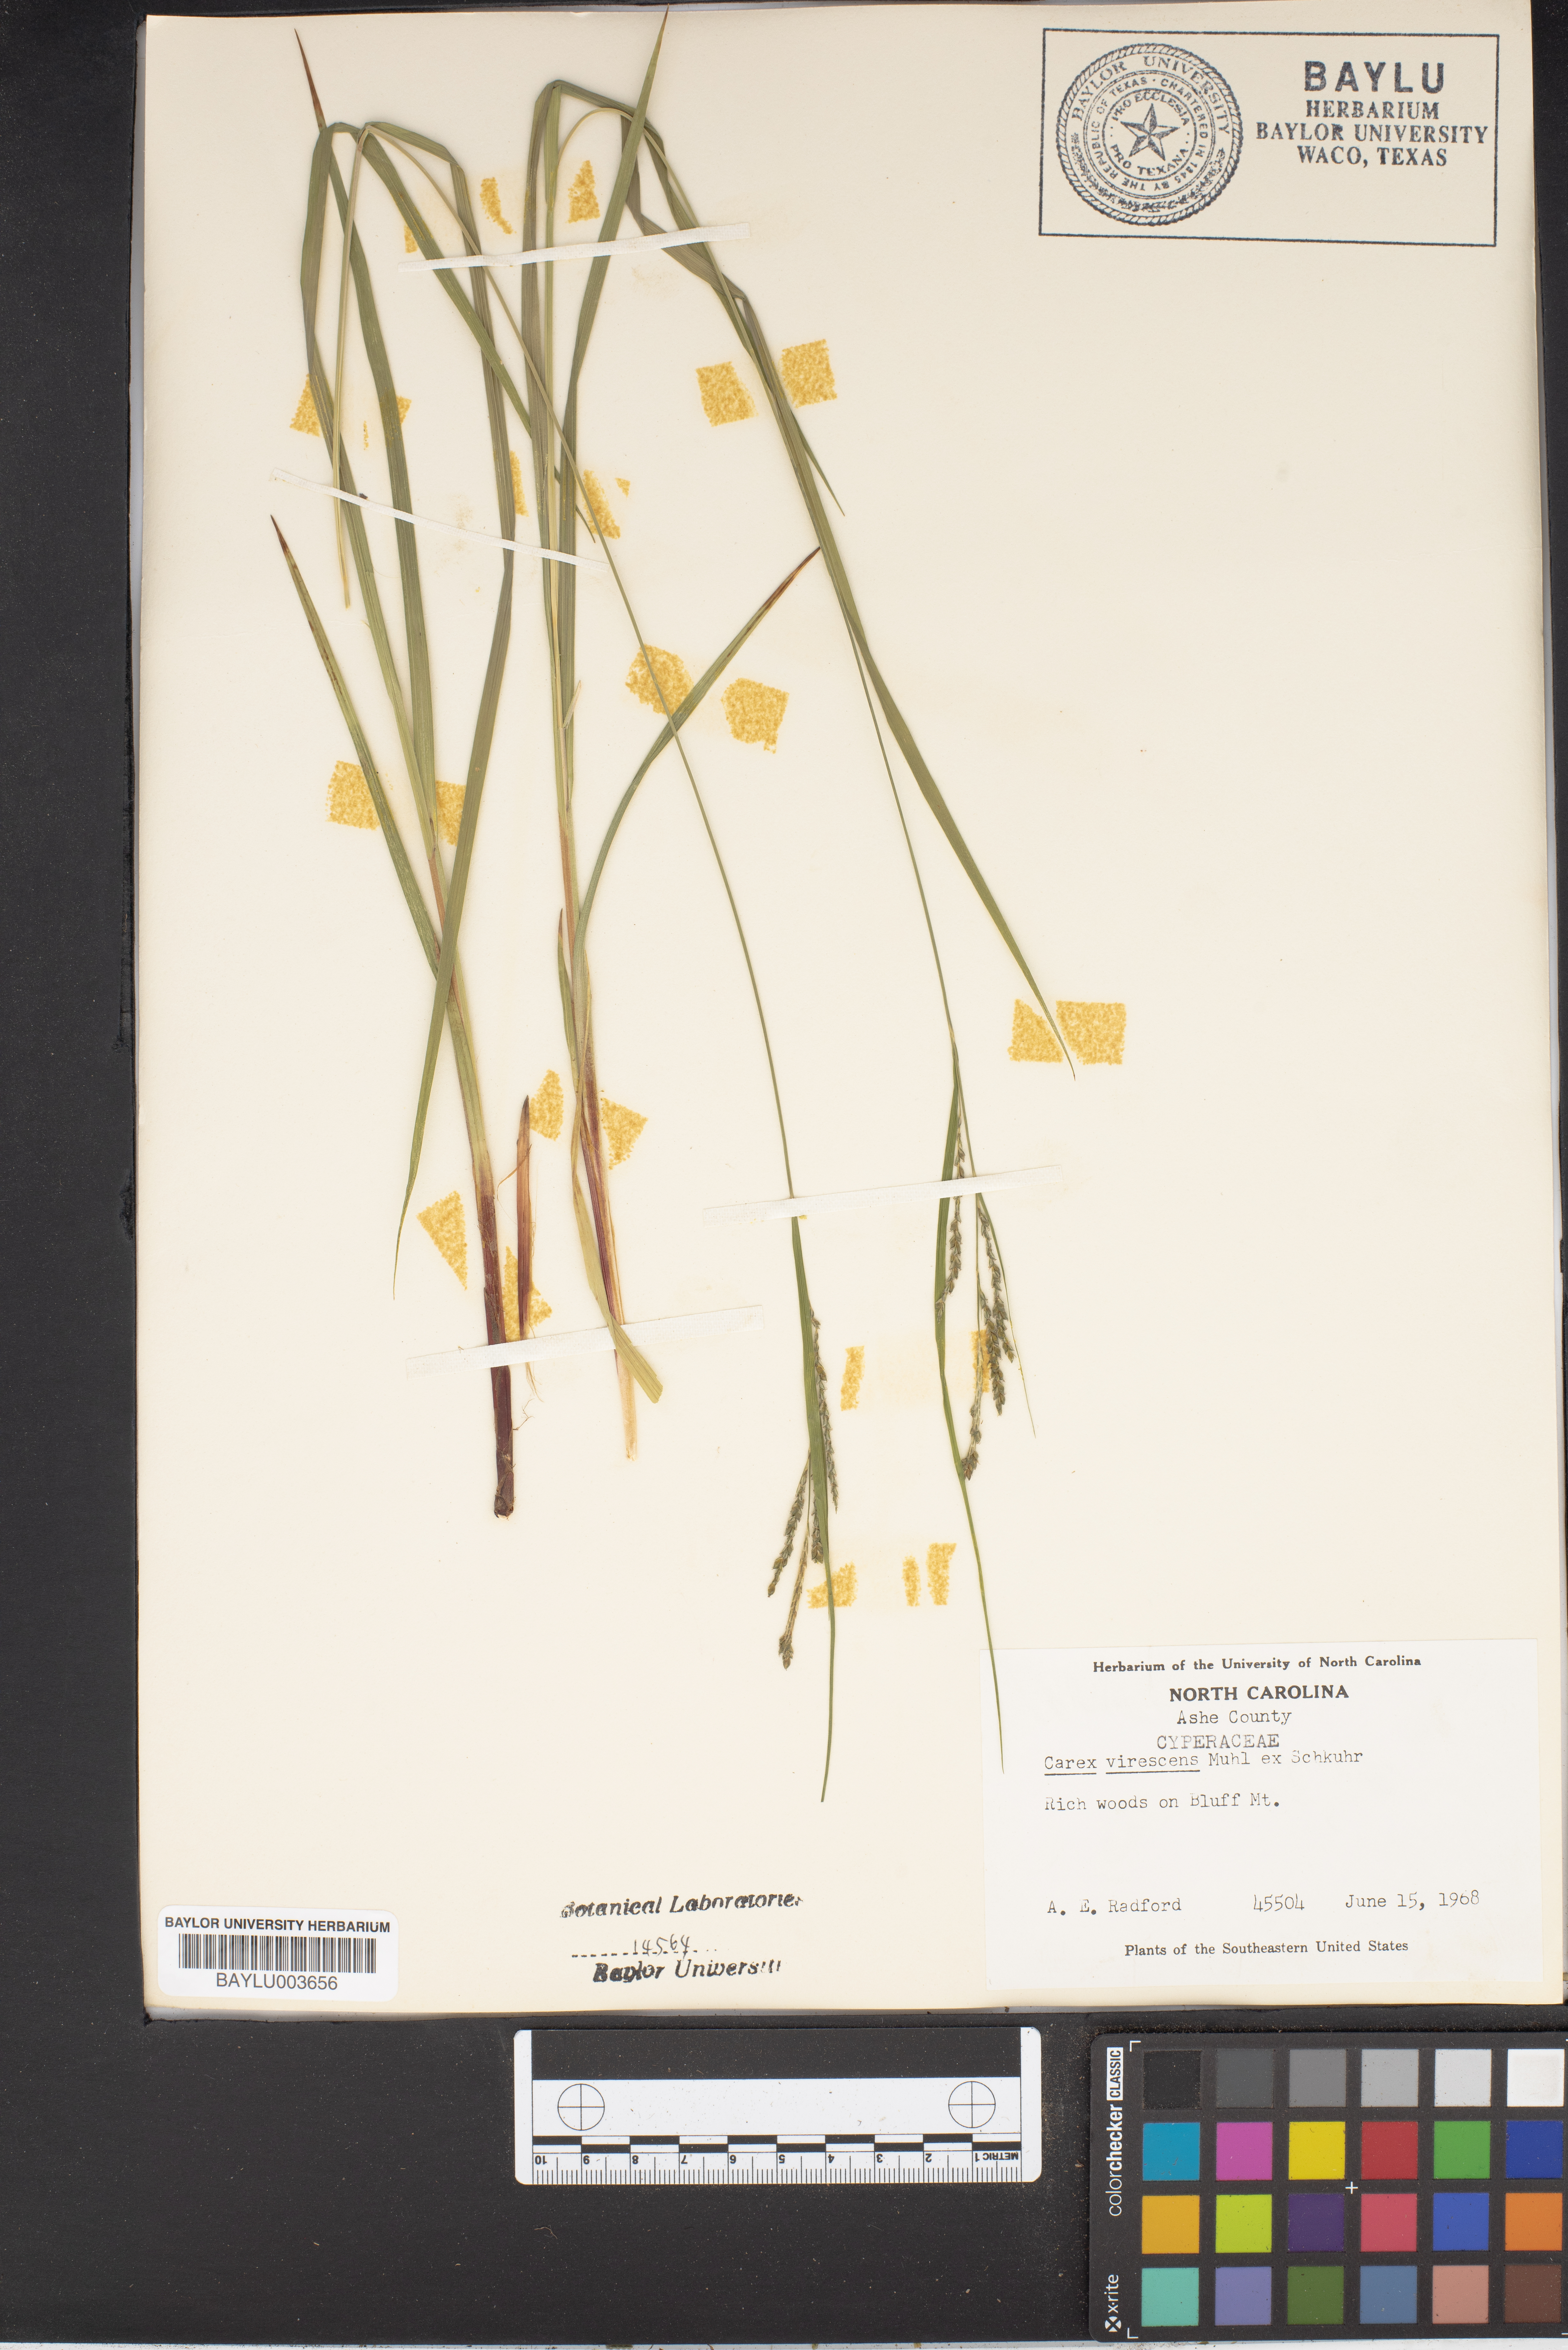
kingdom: Plantae
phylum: Tracheophyta
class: Liliopsida
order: Poales
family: Cyperaceae
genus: Carex
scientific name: Carex virescens
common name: Ribbed sedge
